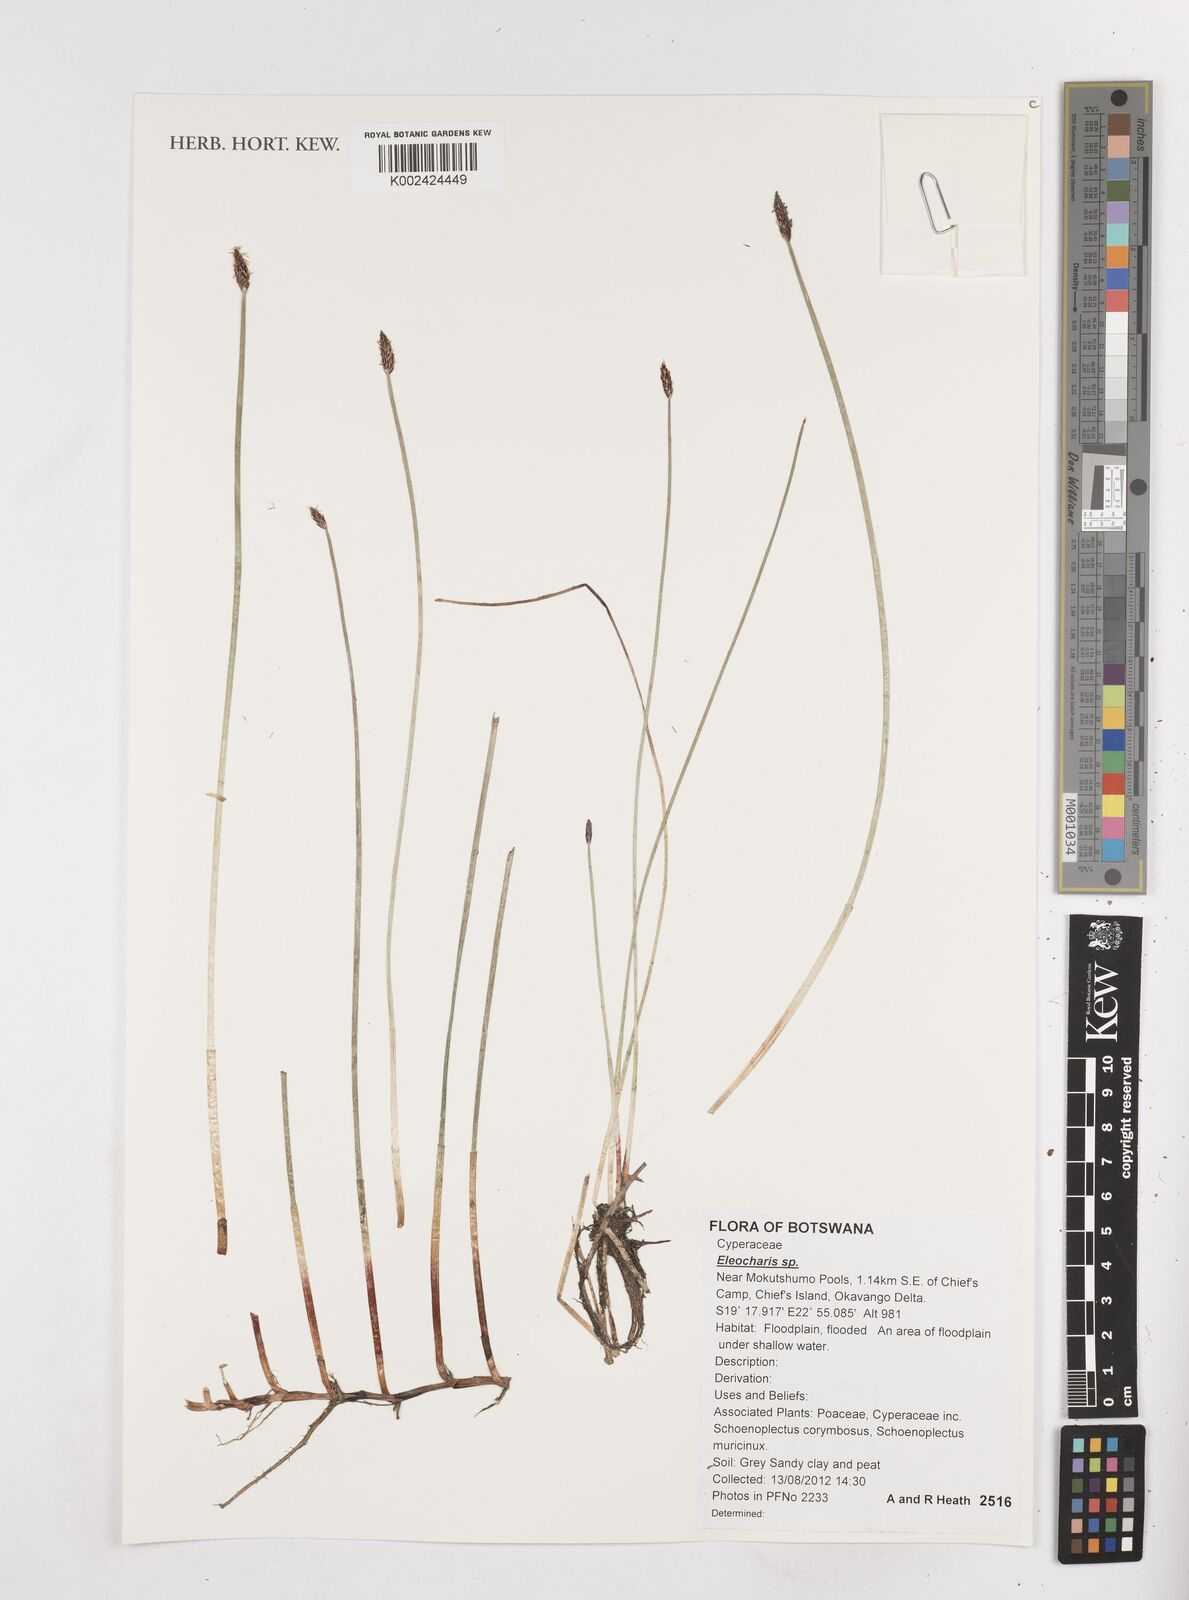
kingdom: Plantae
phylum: Tracheophyta
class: Liliopsida
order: Poales
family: Cyperaceae
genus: Eleocharis
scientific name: Eleocharis
